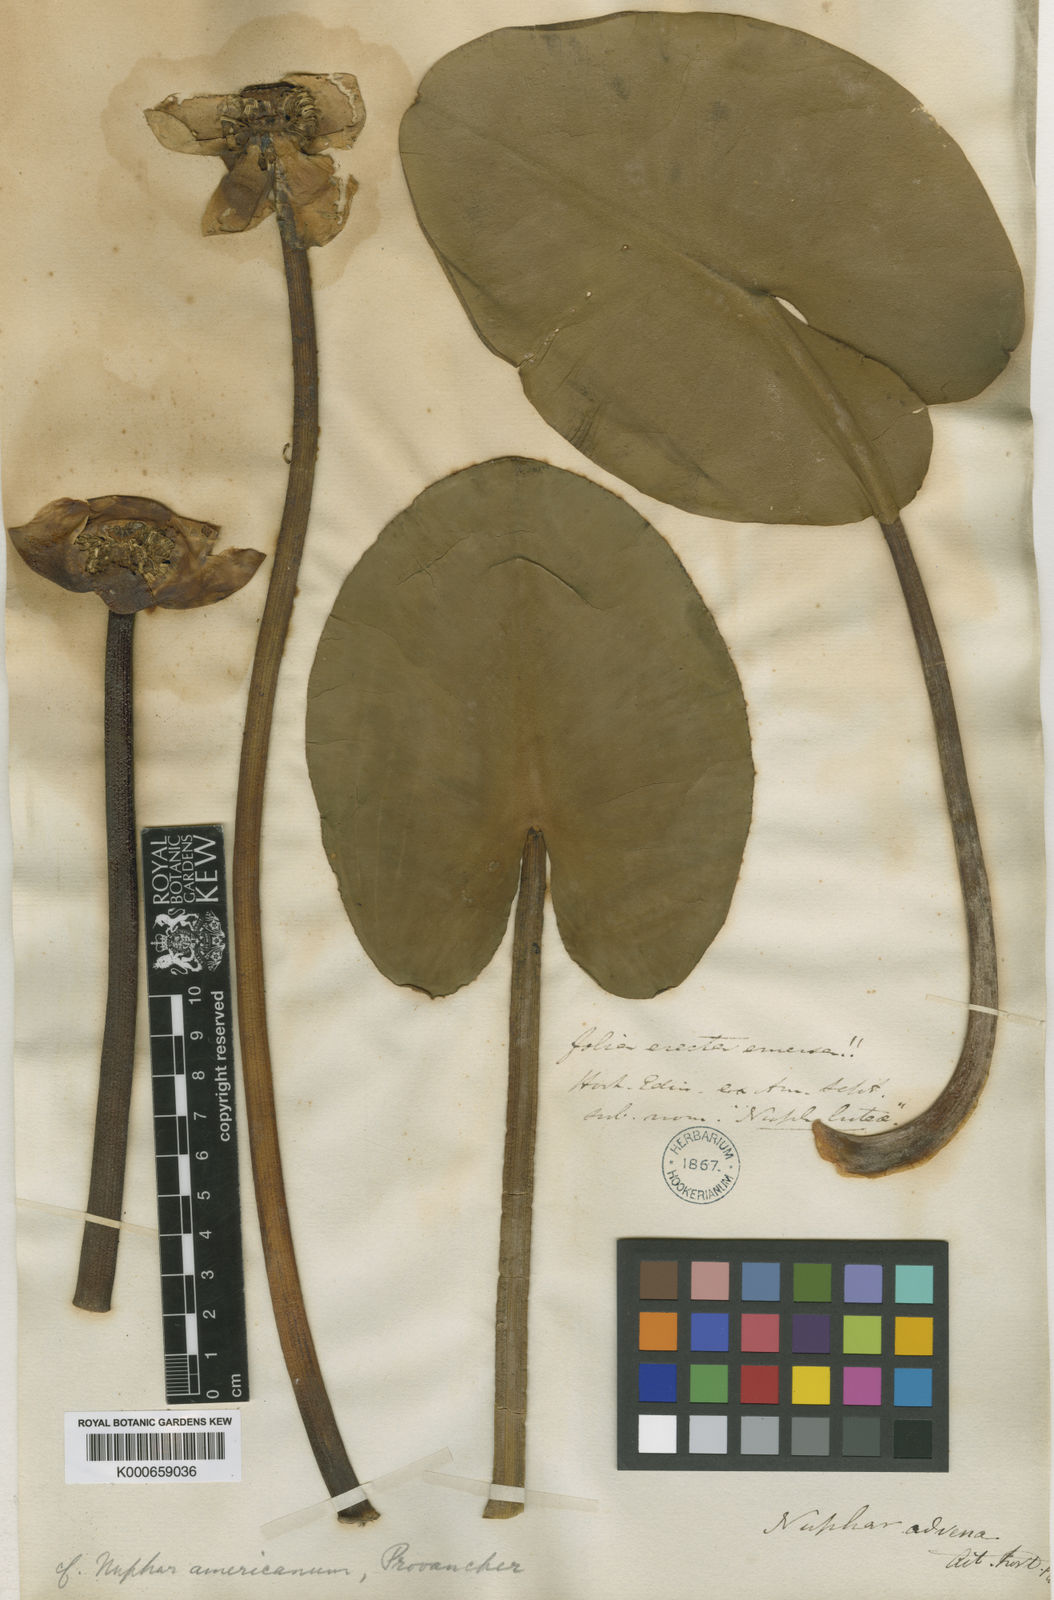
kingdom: Plantae
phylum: Tracheophyta
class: Magnoliopsida
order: Nymphaeales
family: Nymphaeaceae
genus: Nuphar
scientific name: Nuphar
